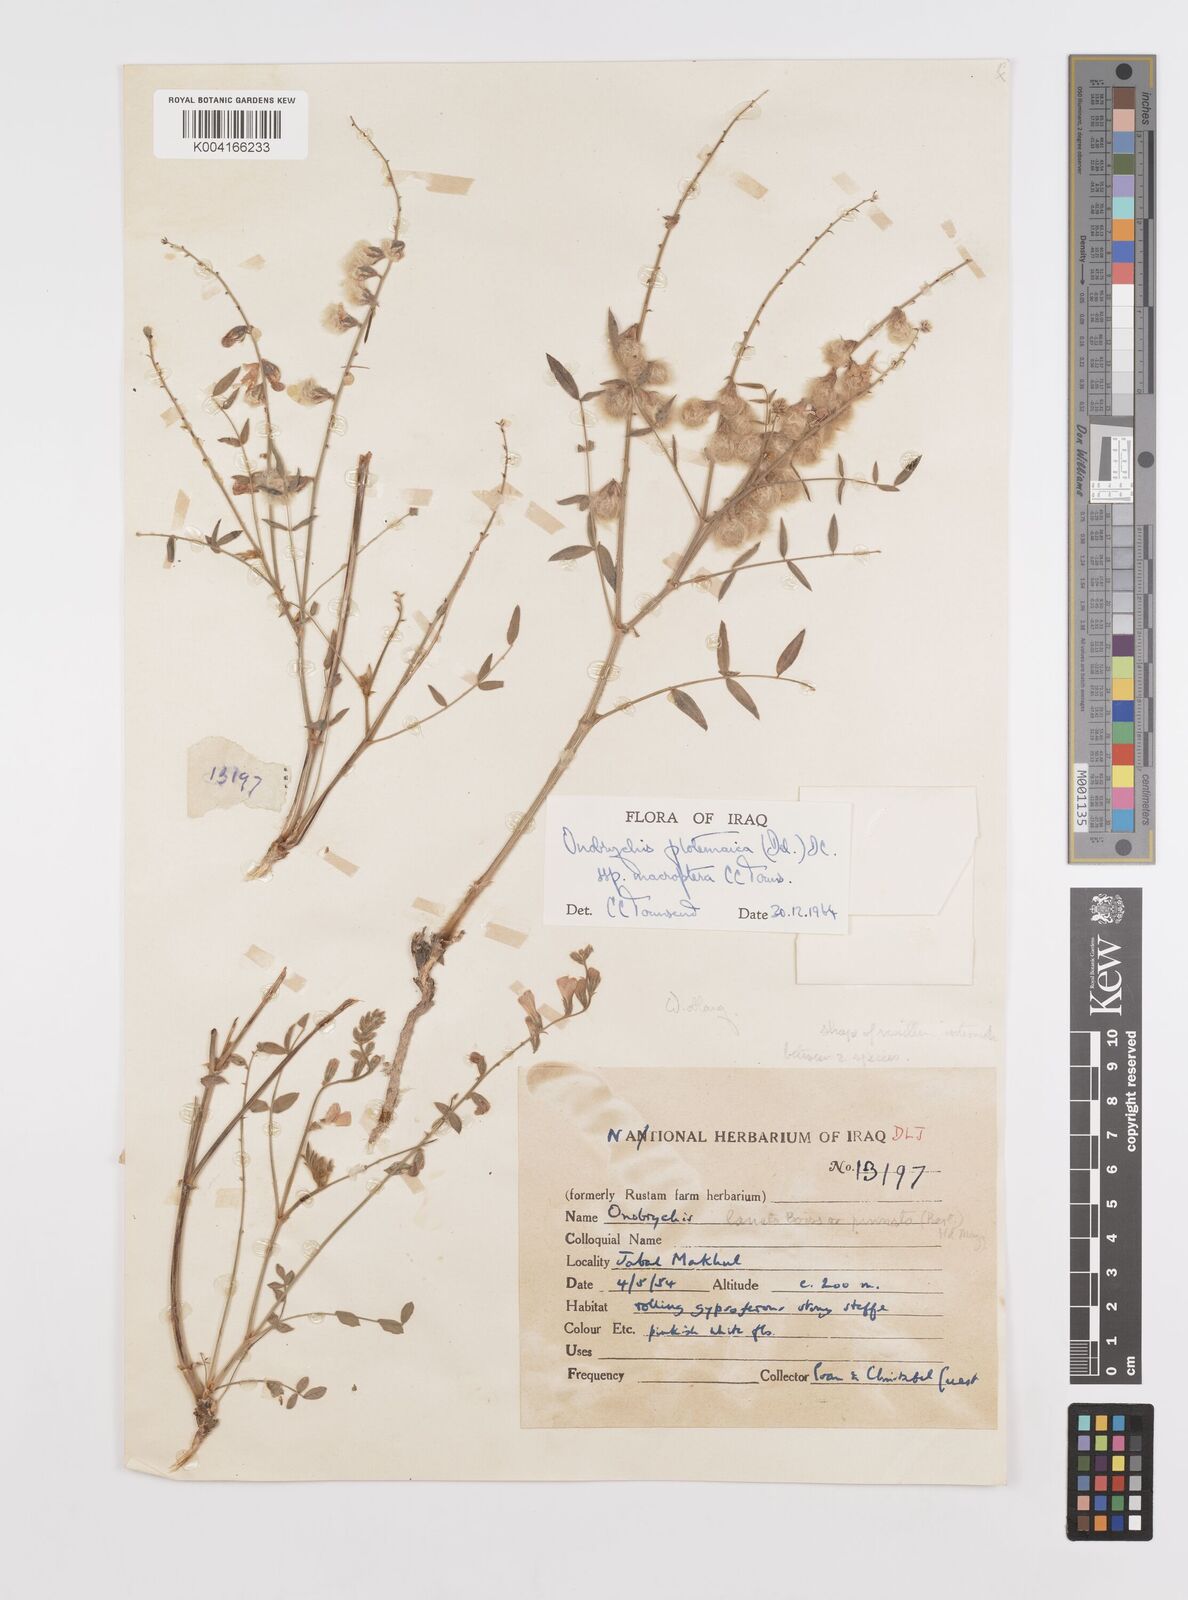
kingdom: Plantae
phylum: Tracheophyta
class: Magnoliopsida
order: Fabales
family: Fabaceae
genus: Onobrychis
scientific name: Onobrychis ptolemaica
